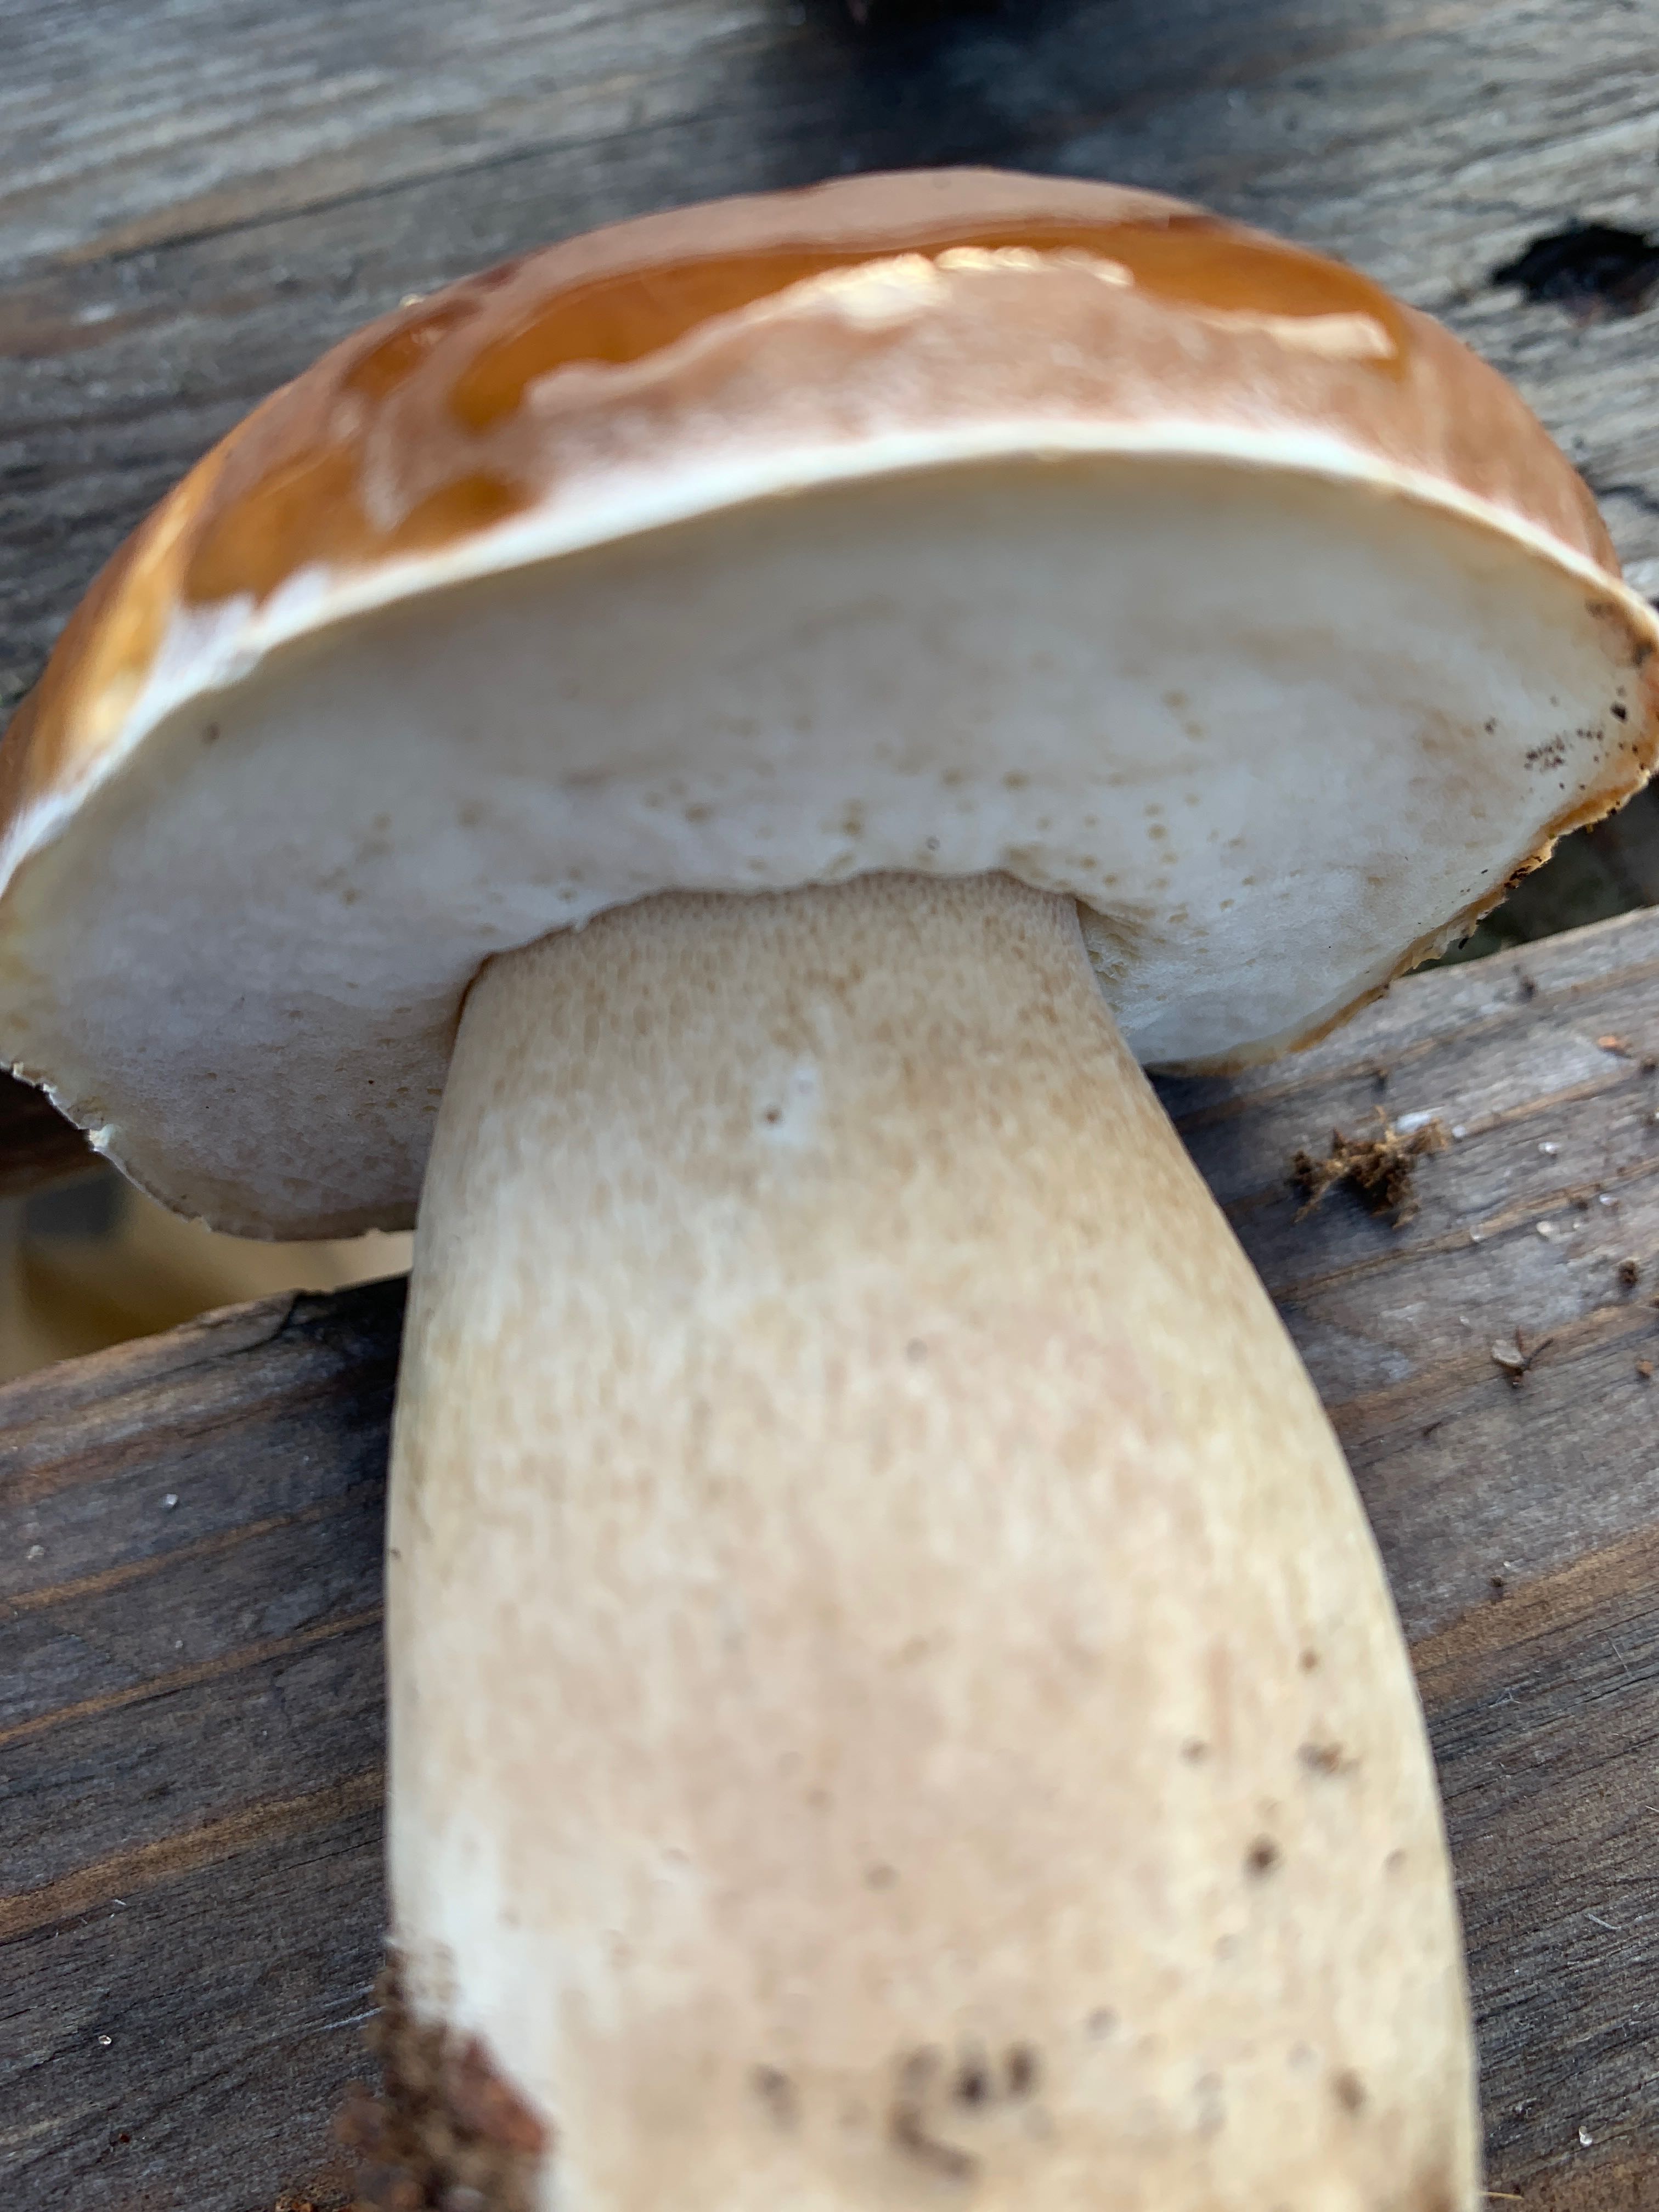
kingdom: Fungi
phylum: Basidiomycota
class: Agaricomycetes
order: Boletales
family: Boletaceae
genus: Boletus
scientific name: Boletus edulis
